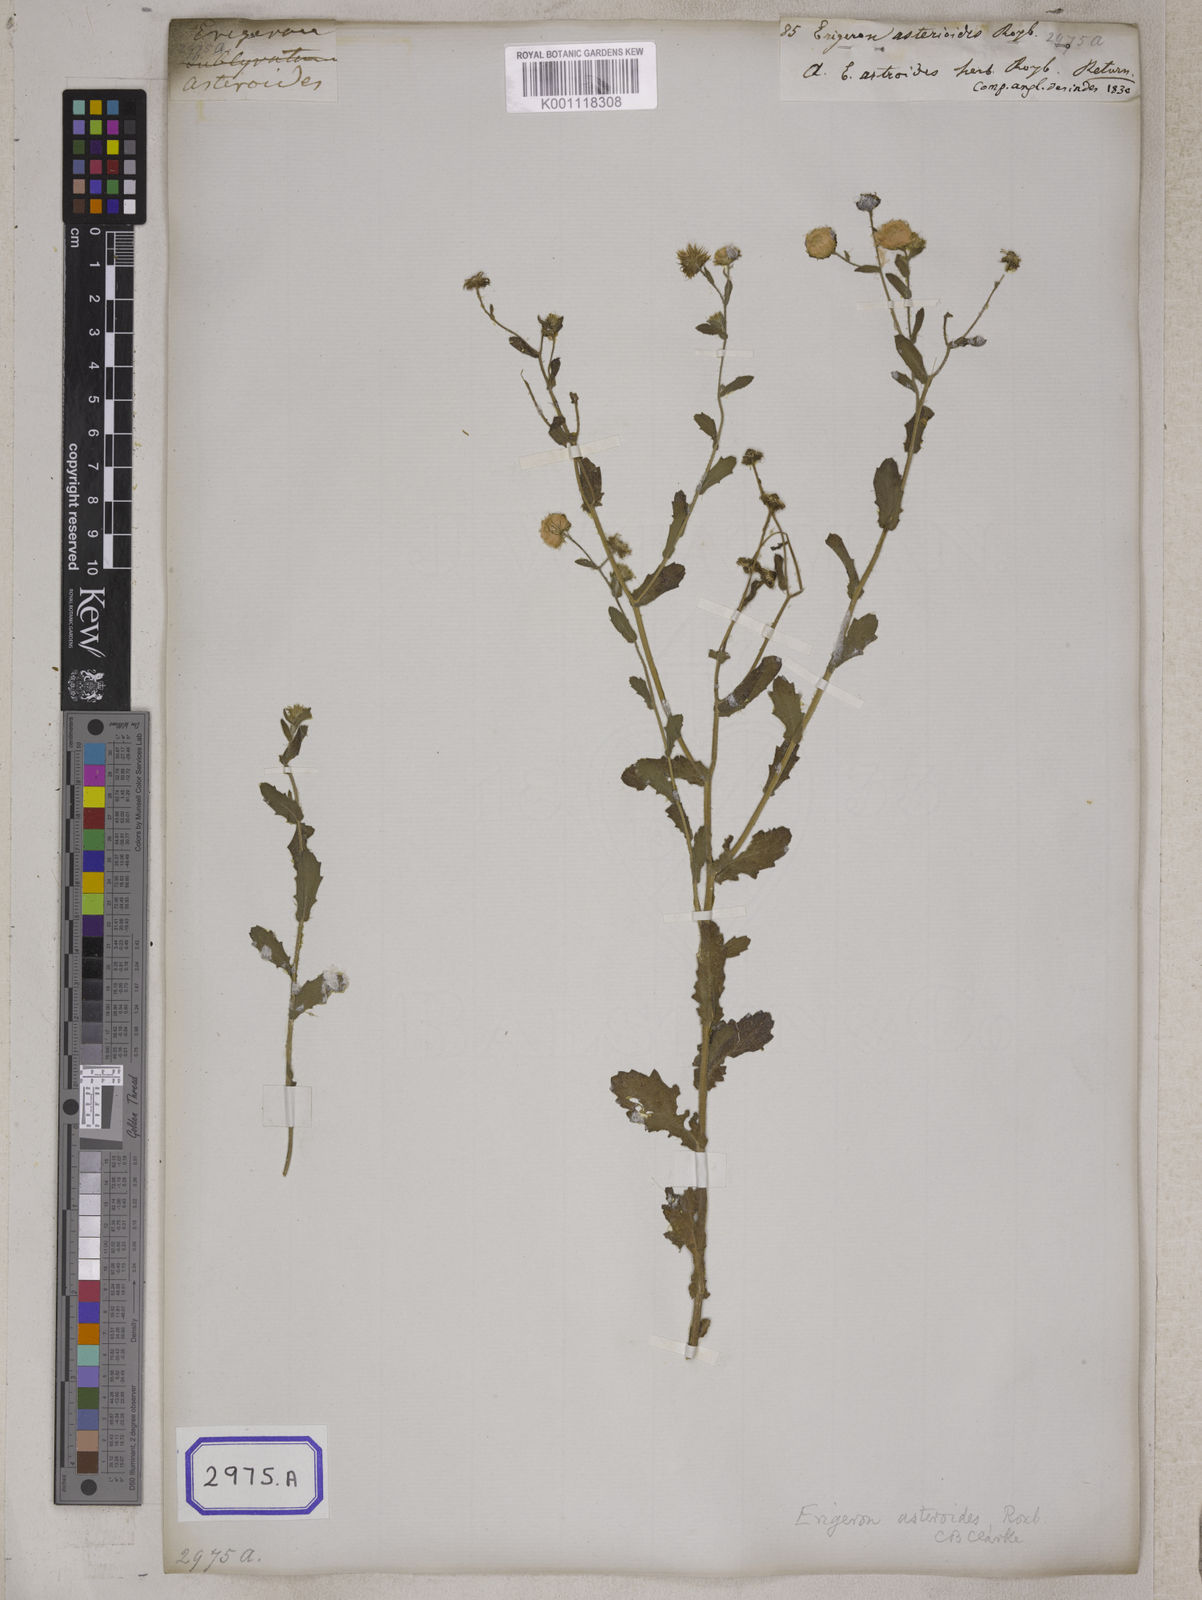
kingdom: Plantae
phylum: Tracheophyta
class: Magnoliopsida
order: Asterales
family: Asteraceae
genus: Erigeron
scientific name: Erigeron sublyratus
